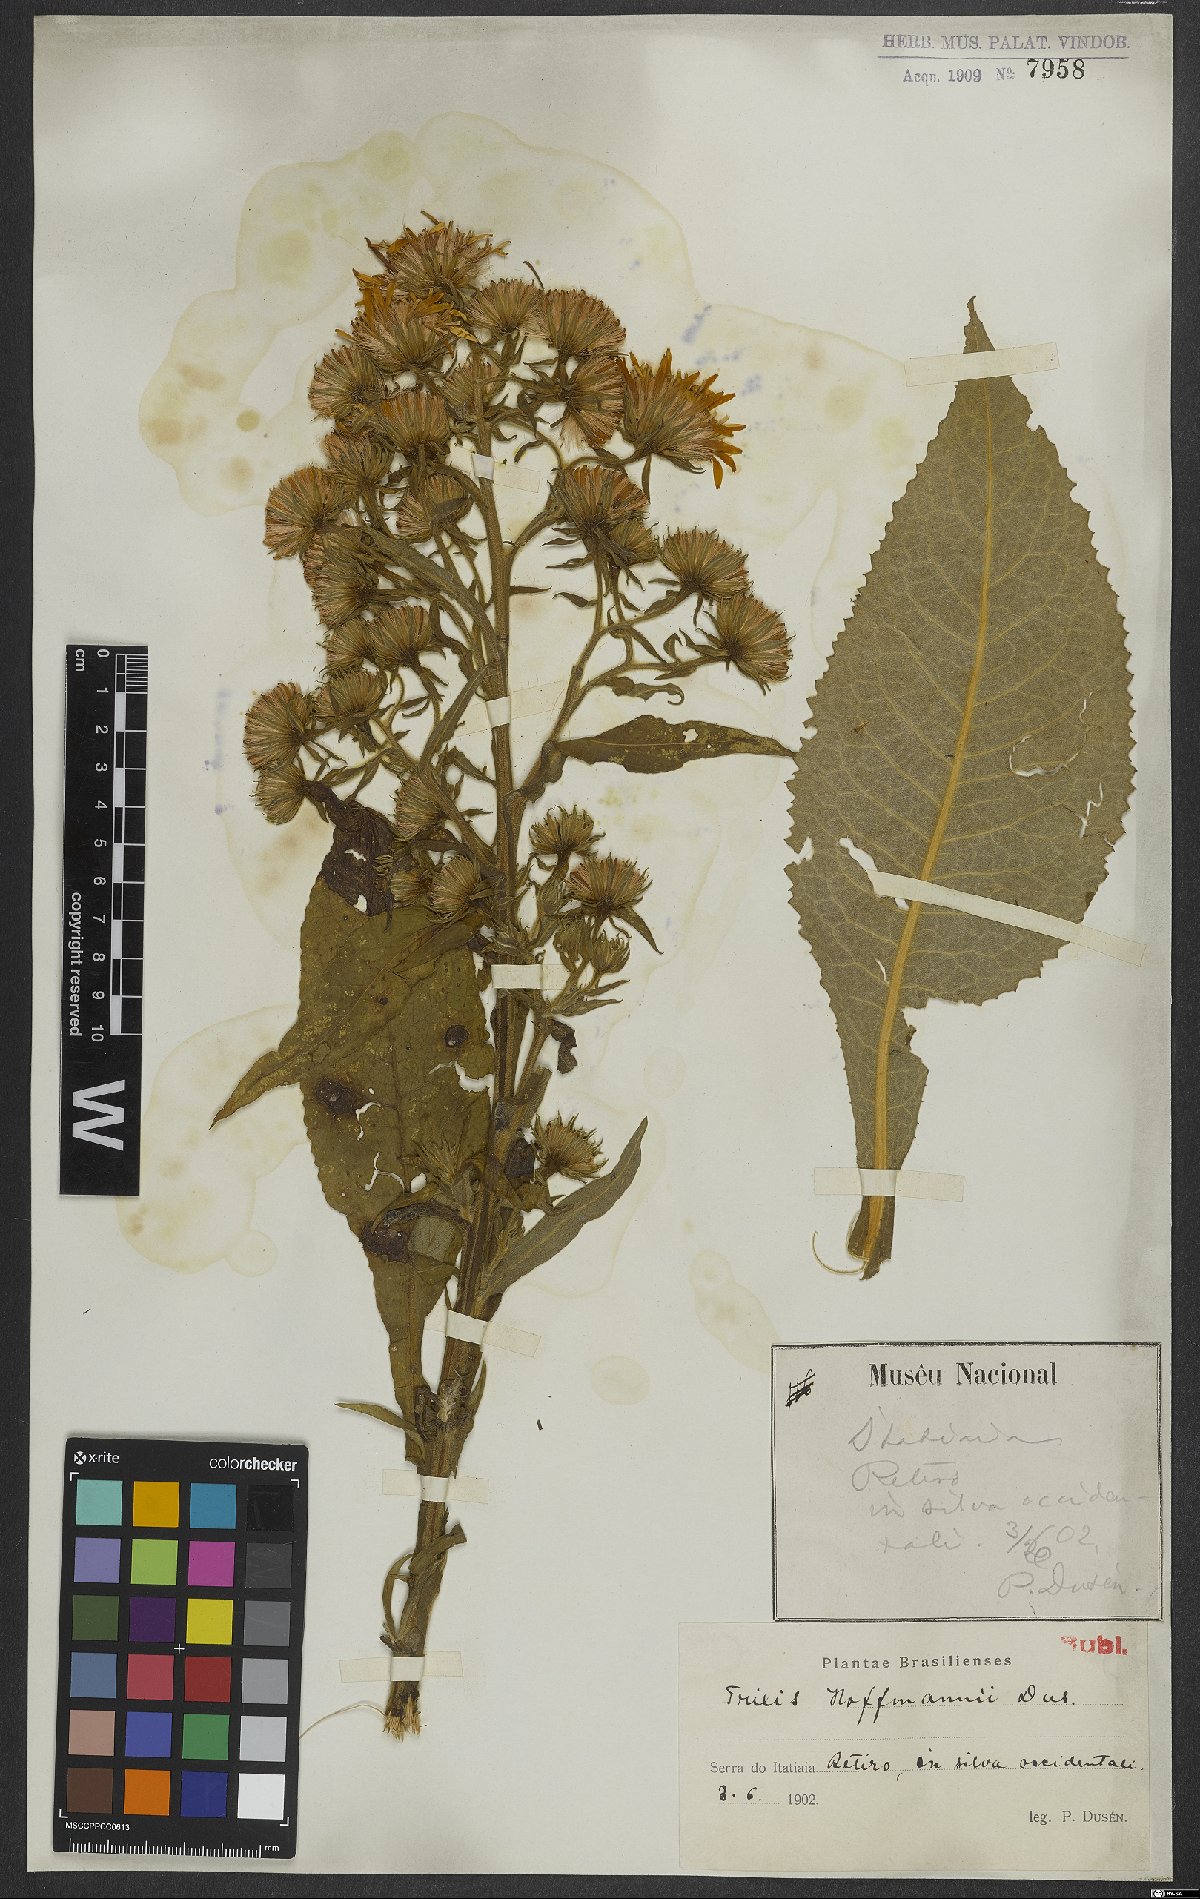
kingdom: Plantae
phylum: Tracheophyta
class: Magnoliopsida
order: Asterales
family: Asteraceae
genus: Trixis
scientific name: Trixis ophiorhiza
